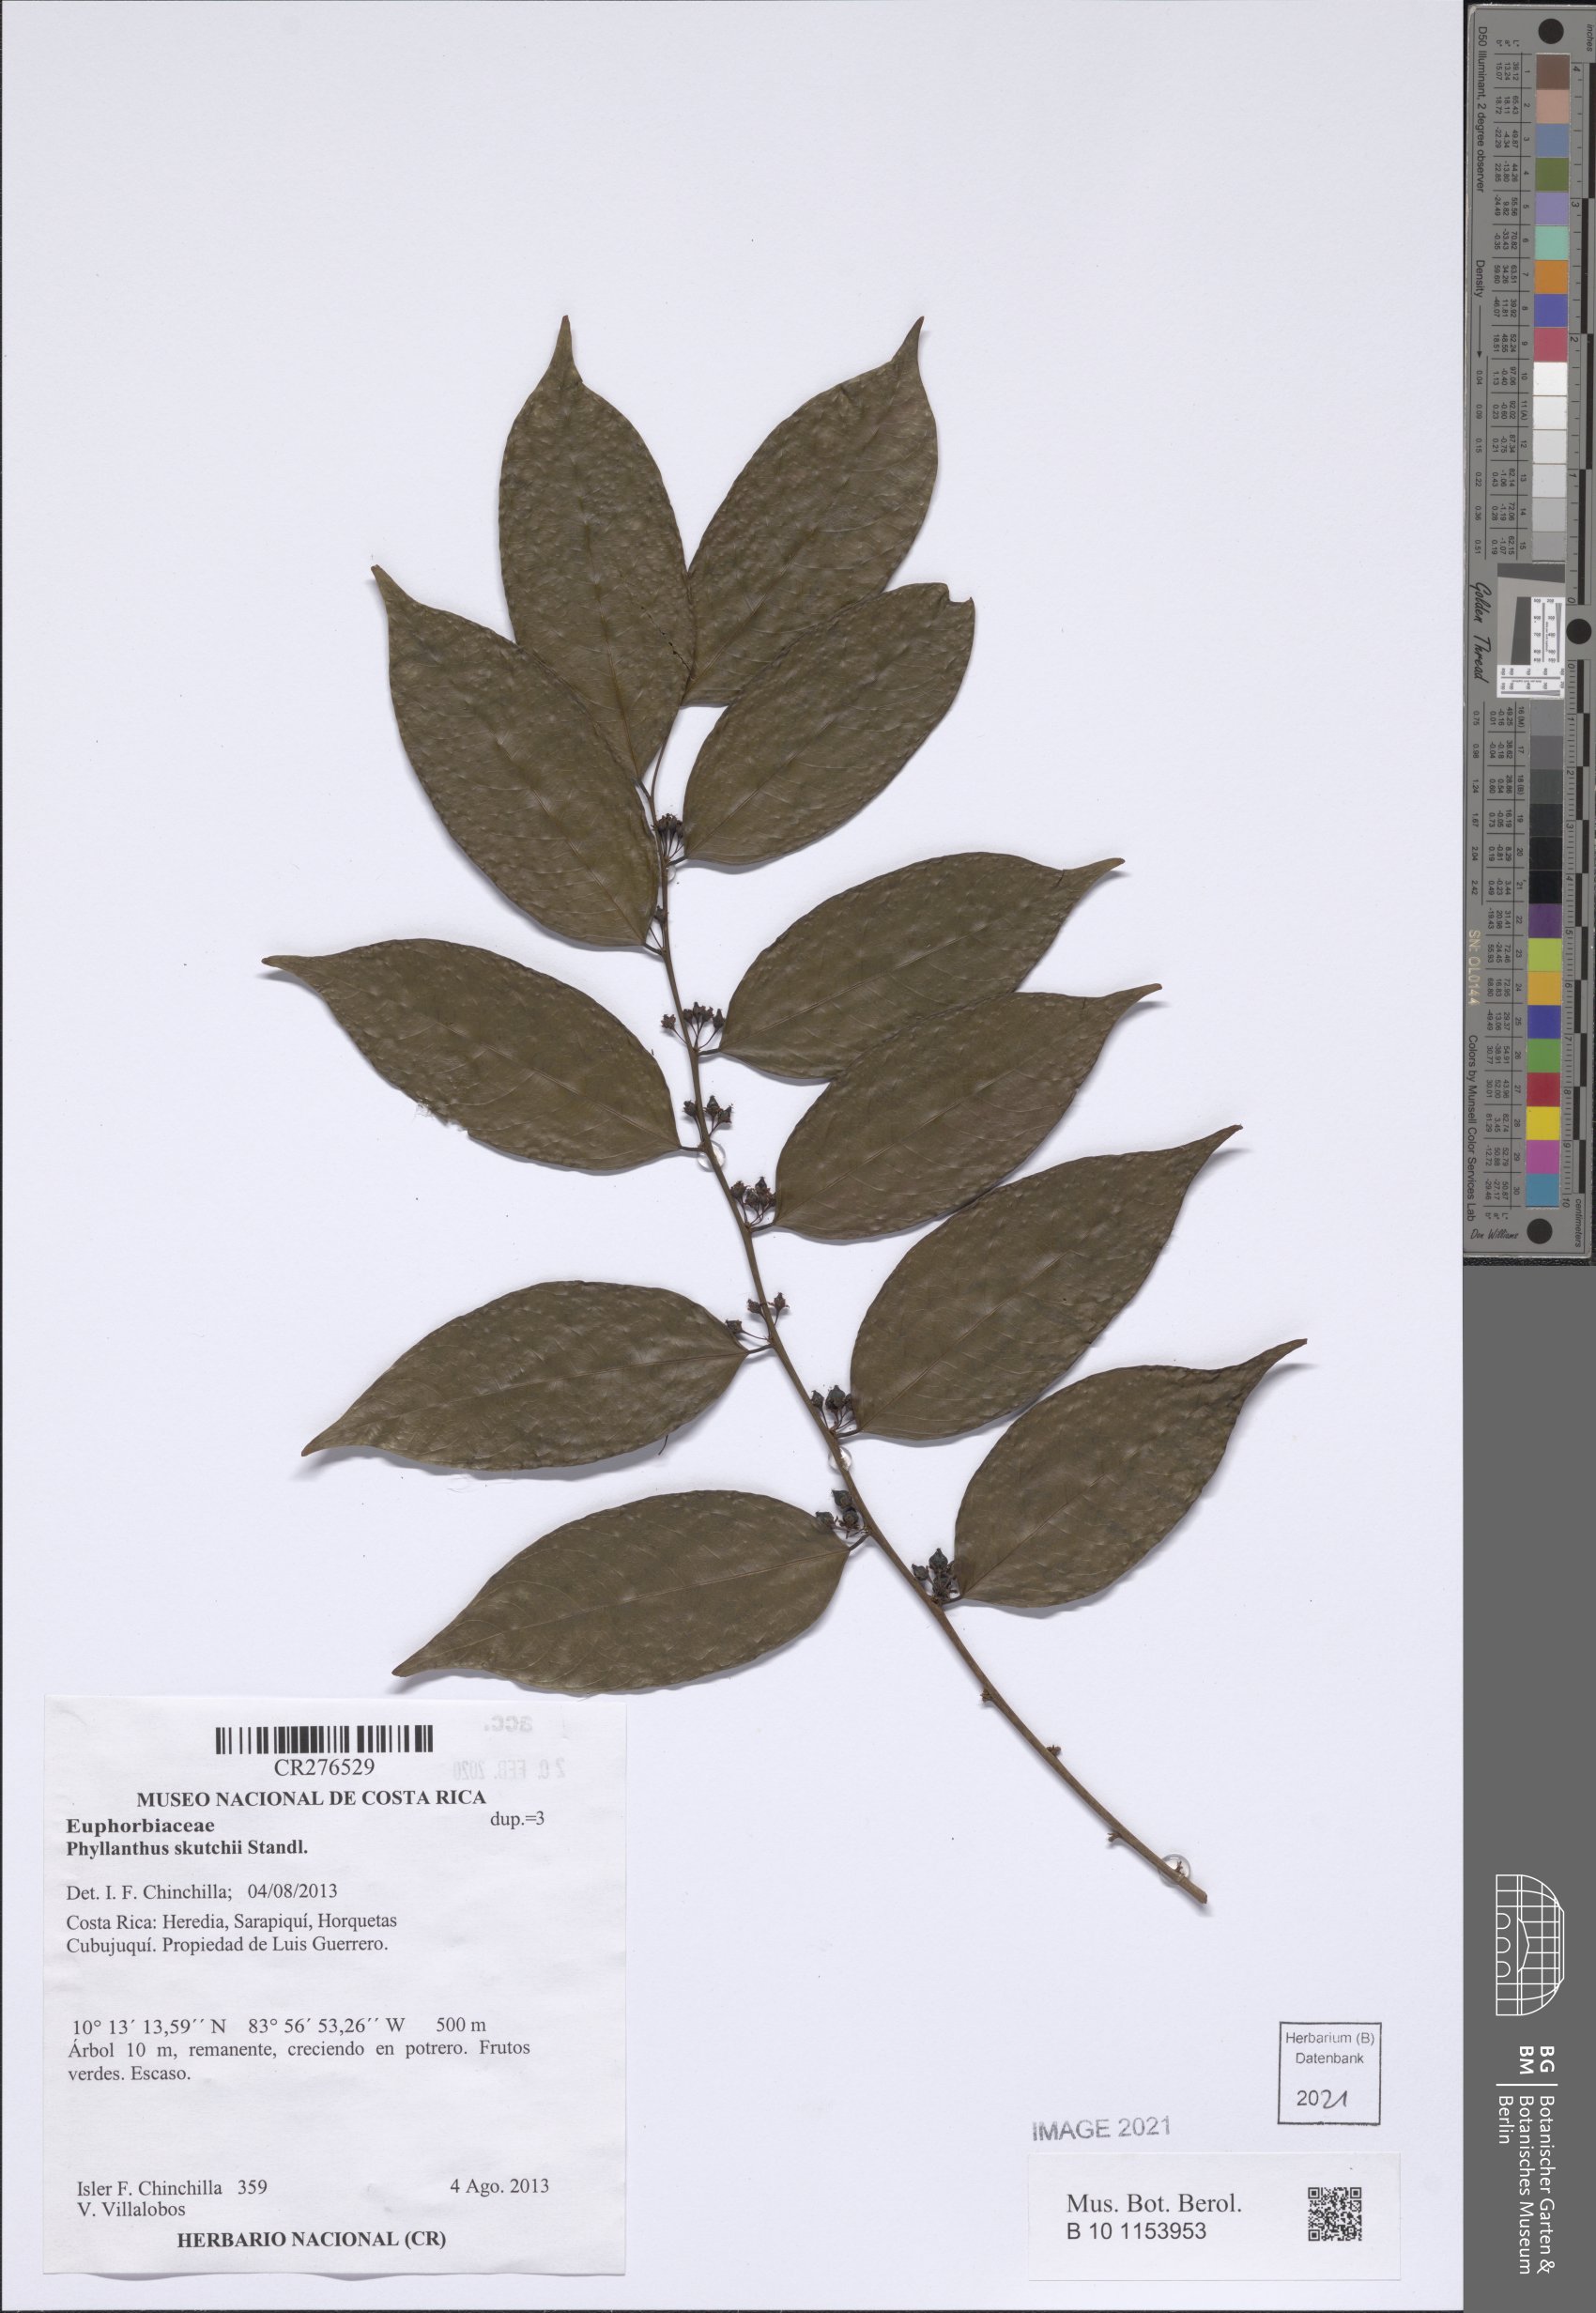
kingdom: Plantae
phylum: Tracheophyta
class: Magnoliopsida
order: Malpighiales
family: Phyllanthaceae
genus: Phyllanthus
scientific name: Phyllanthus skutchii
